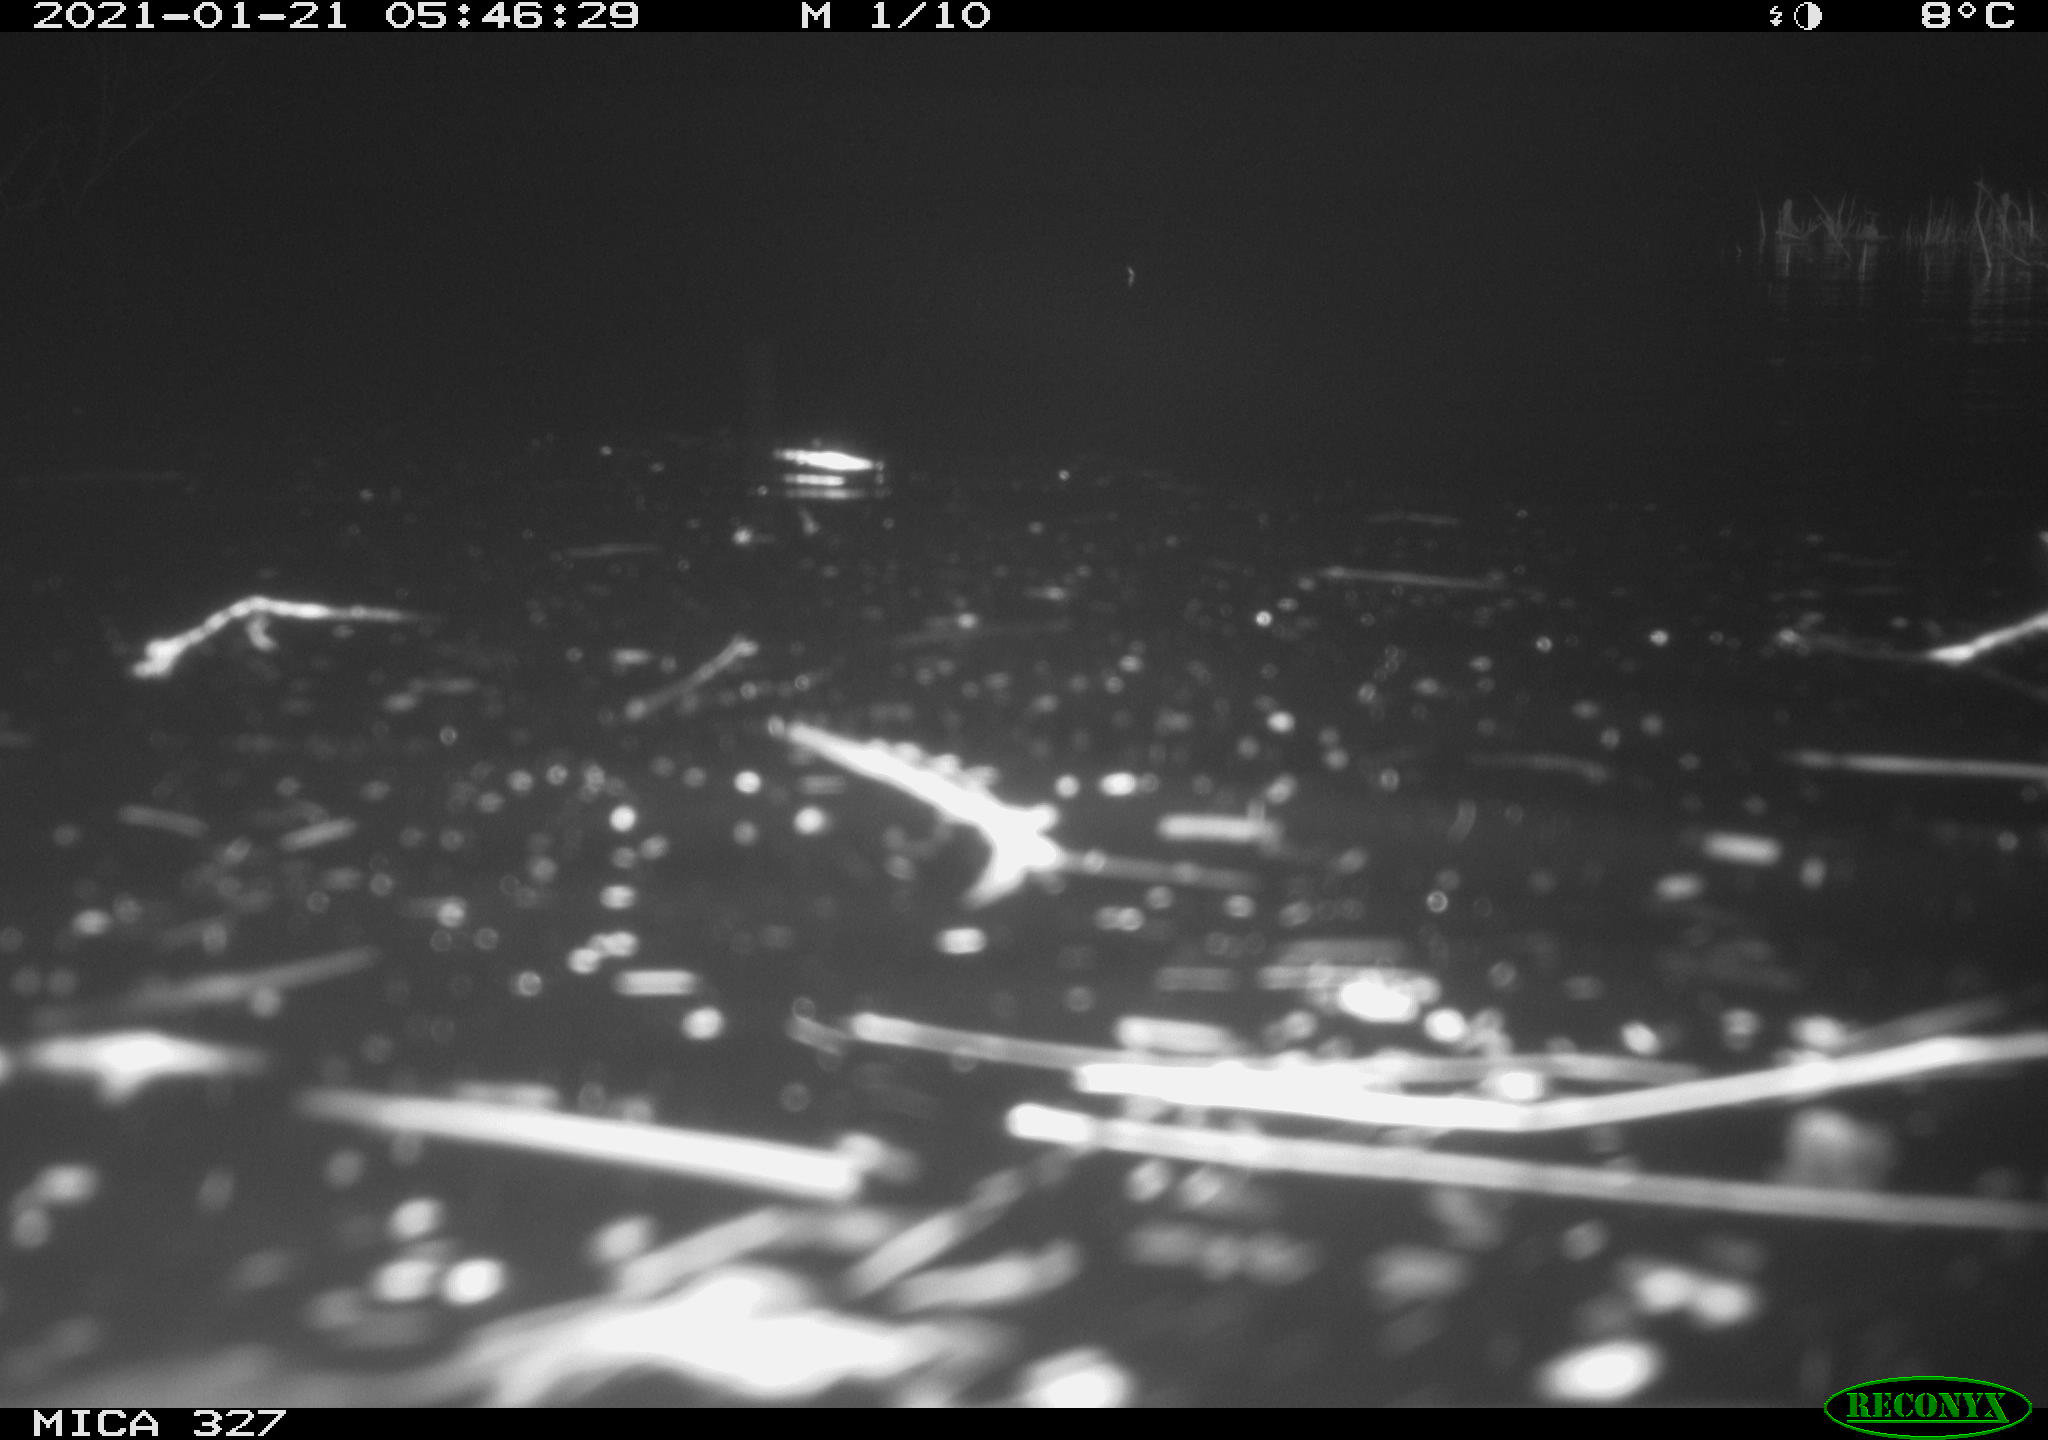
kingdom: Animalia
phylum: Chordata
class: Mammalia
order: Rodentia
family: Myocastoridae
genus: Myocastor
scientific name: Myocastor coypus
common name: Coypu
